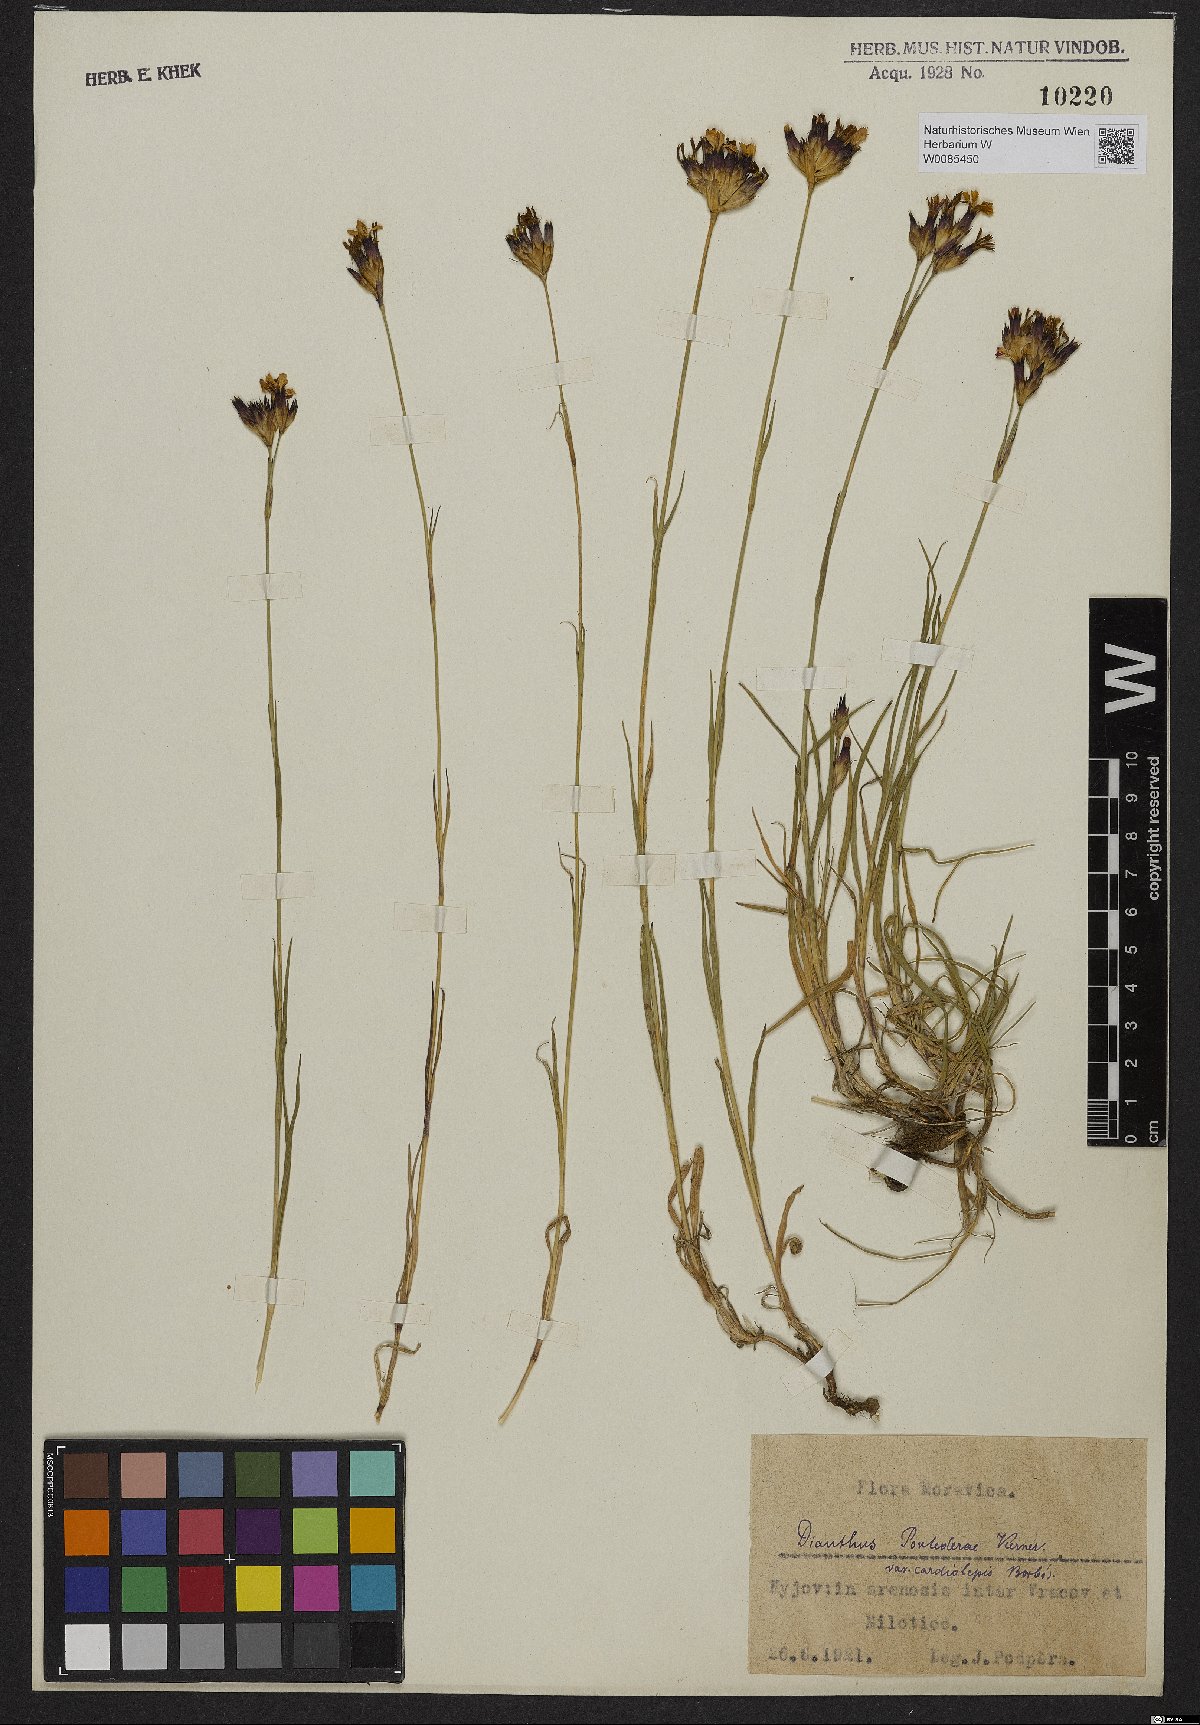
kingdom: Plantae
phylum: Tracheophyta
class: Magnoliopsida
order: Caryophyllales
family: Caryophyllaceae
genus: Dianthus
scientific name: Dianthus pontederae
